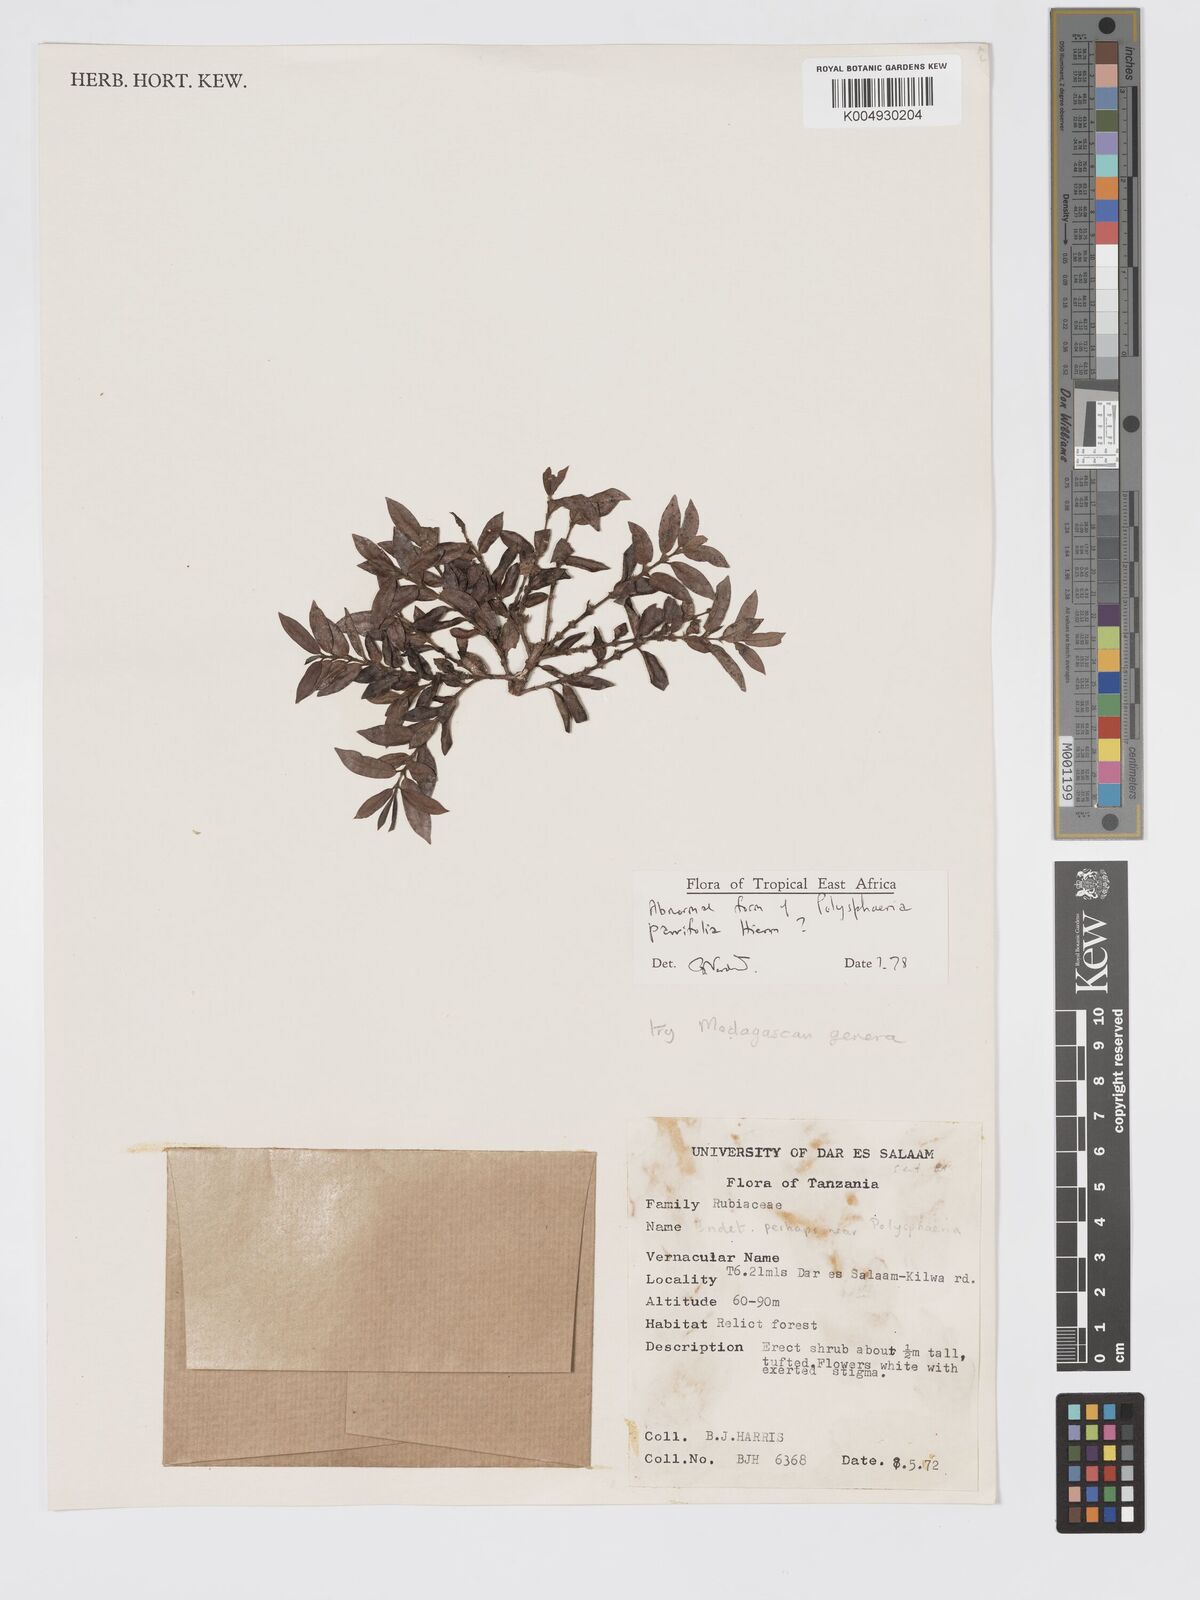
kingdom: Plantae
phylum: Tracheophyta
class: Magnoliopsida
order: Gentianales
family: Rubiaceae
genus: Polysphaeria
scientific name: Polysphaeria parvifolia
